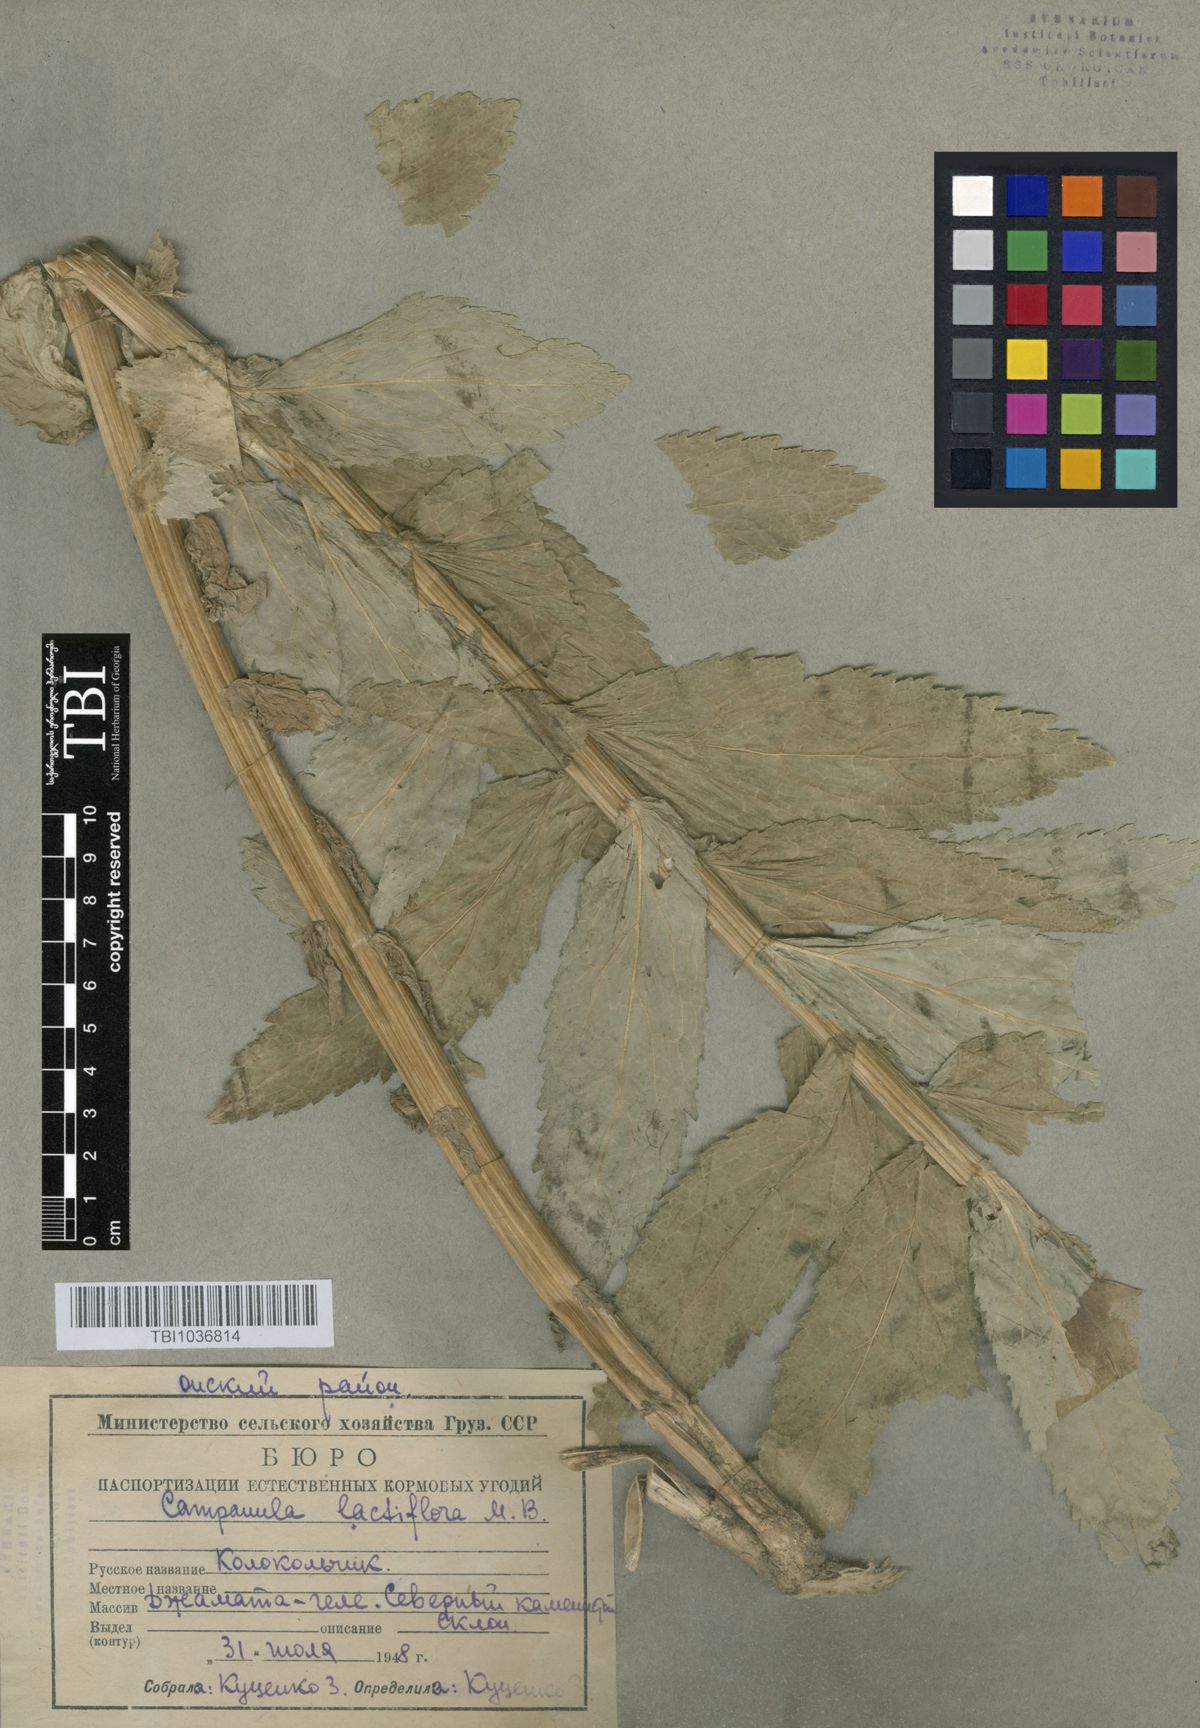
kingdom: Plantae
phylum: Tracheophyta
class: Magnoliopsida
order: Asterales
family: Campanulaceae
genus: Campanula
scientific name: Campanula lactiflora
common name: Milky bellflower
